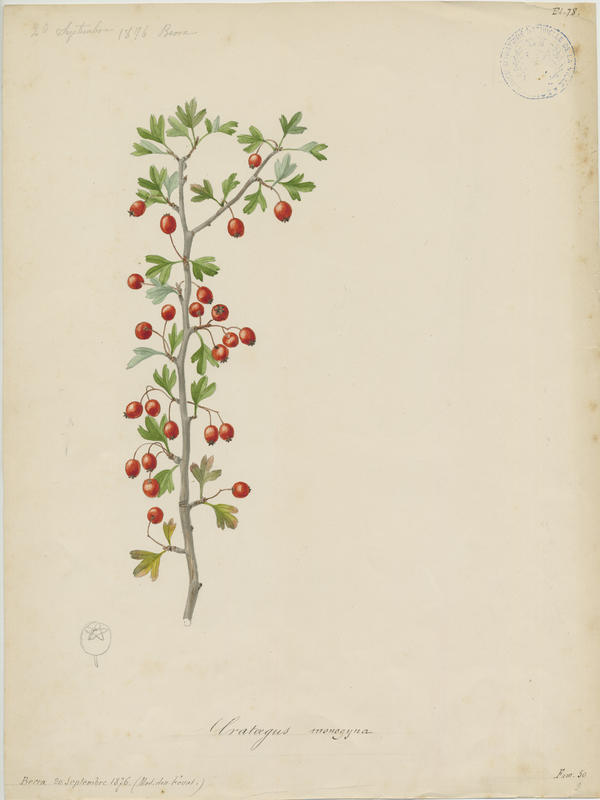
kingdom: Plantae
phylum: Tracheophyta
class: Magnoliopsida
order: Rosales
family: Rosaceae
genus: Crataegus
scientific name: Crataegus monogyna
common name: Hawthorn
